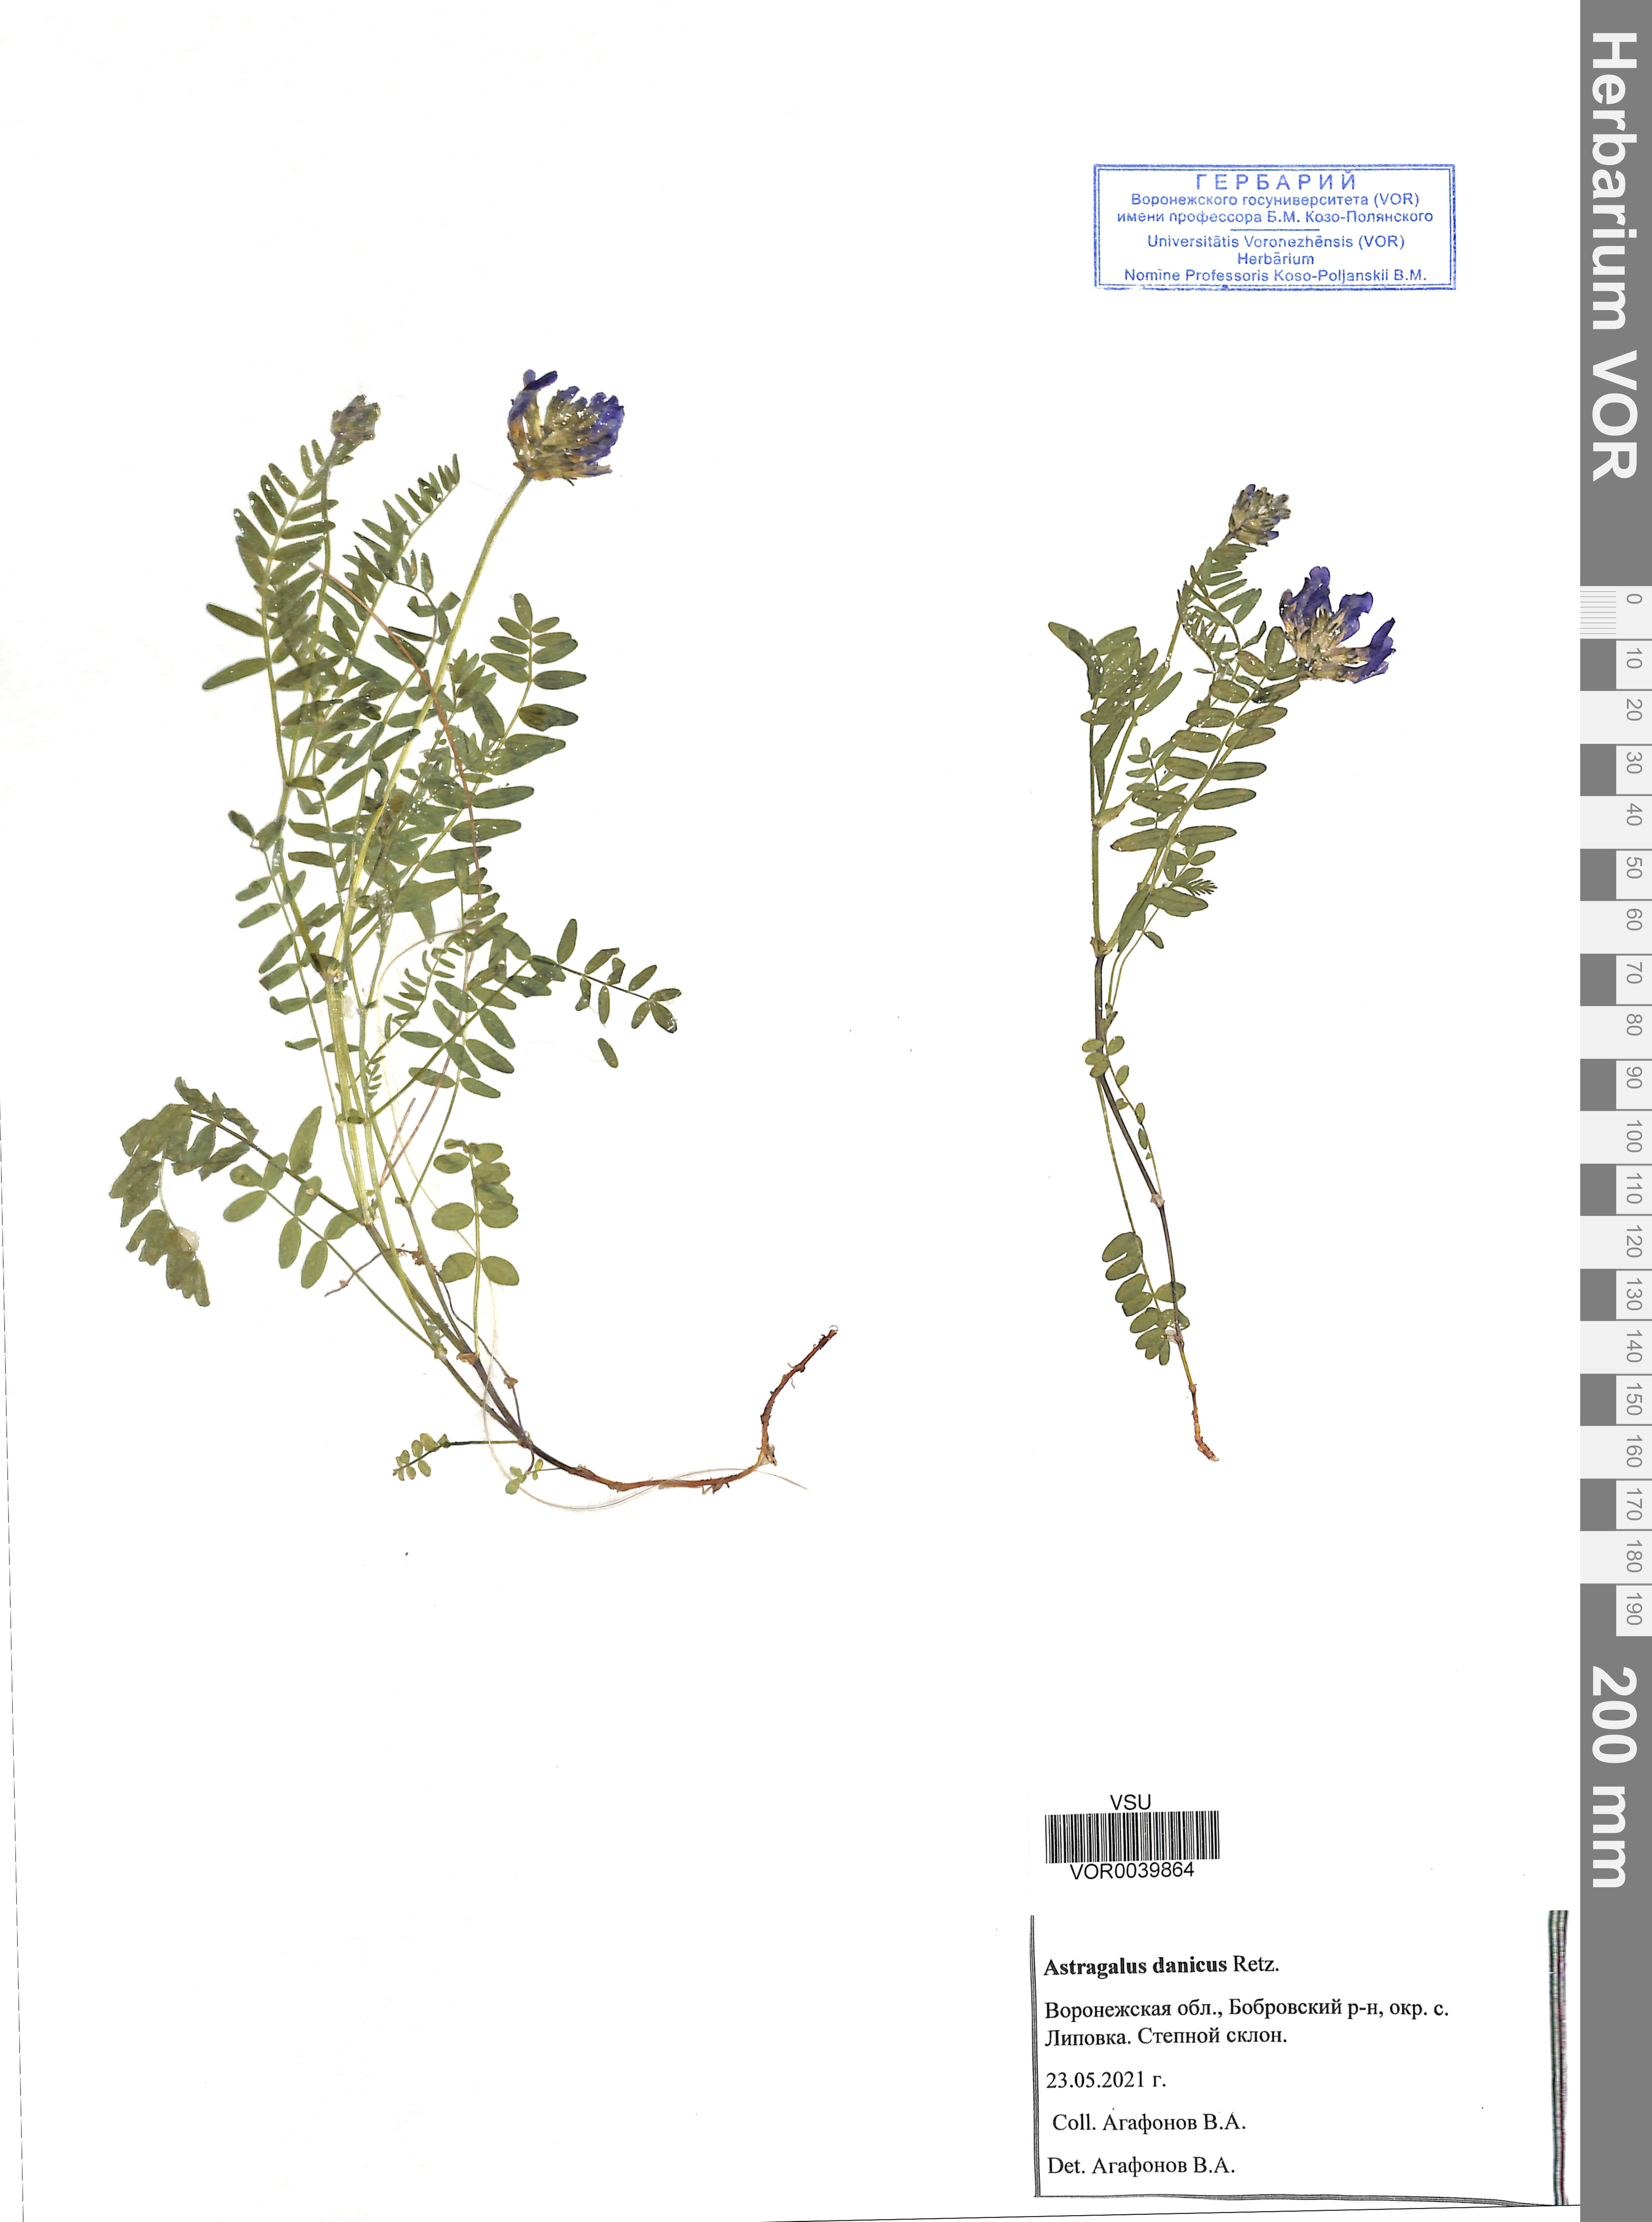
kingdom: Plantae
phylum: Tracheophyta
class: Magnoliopsida
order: Fabales
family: Fabaceae
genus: Astragalus
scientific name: Astragalus danicus
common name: Purple milk-vetch
